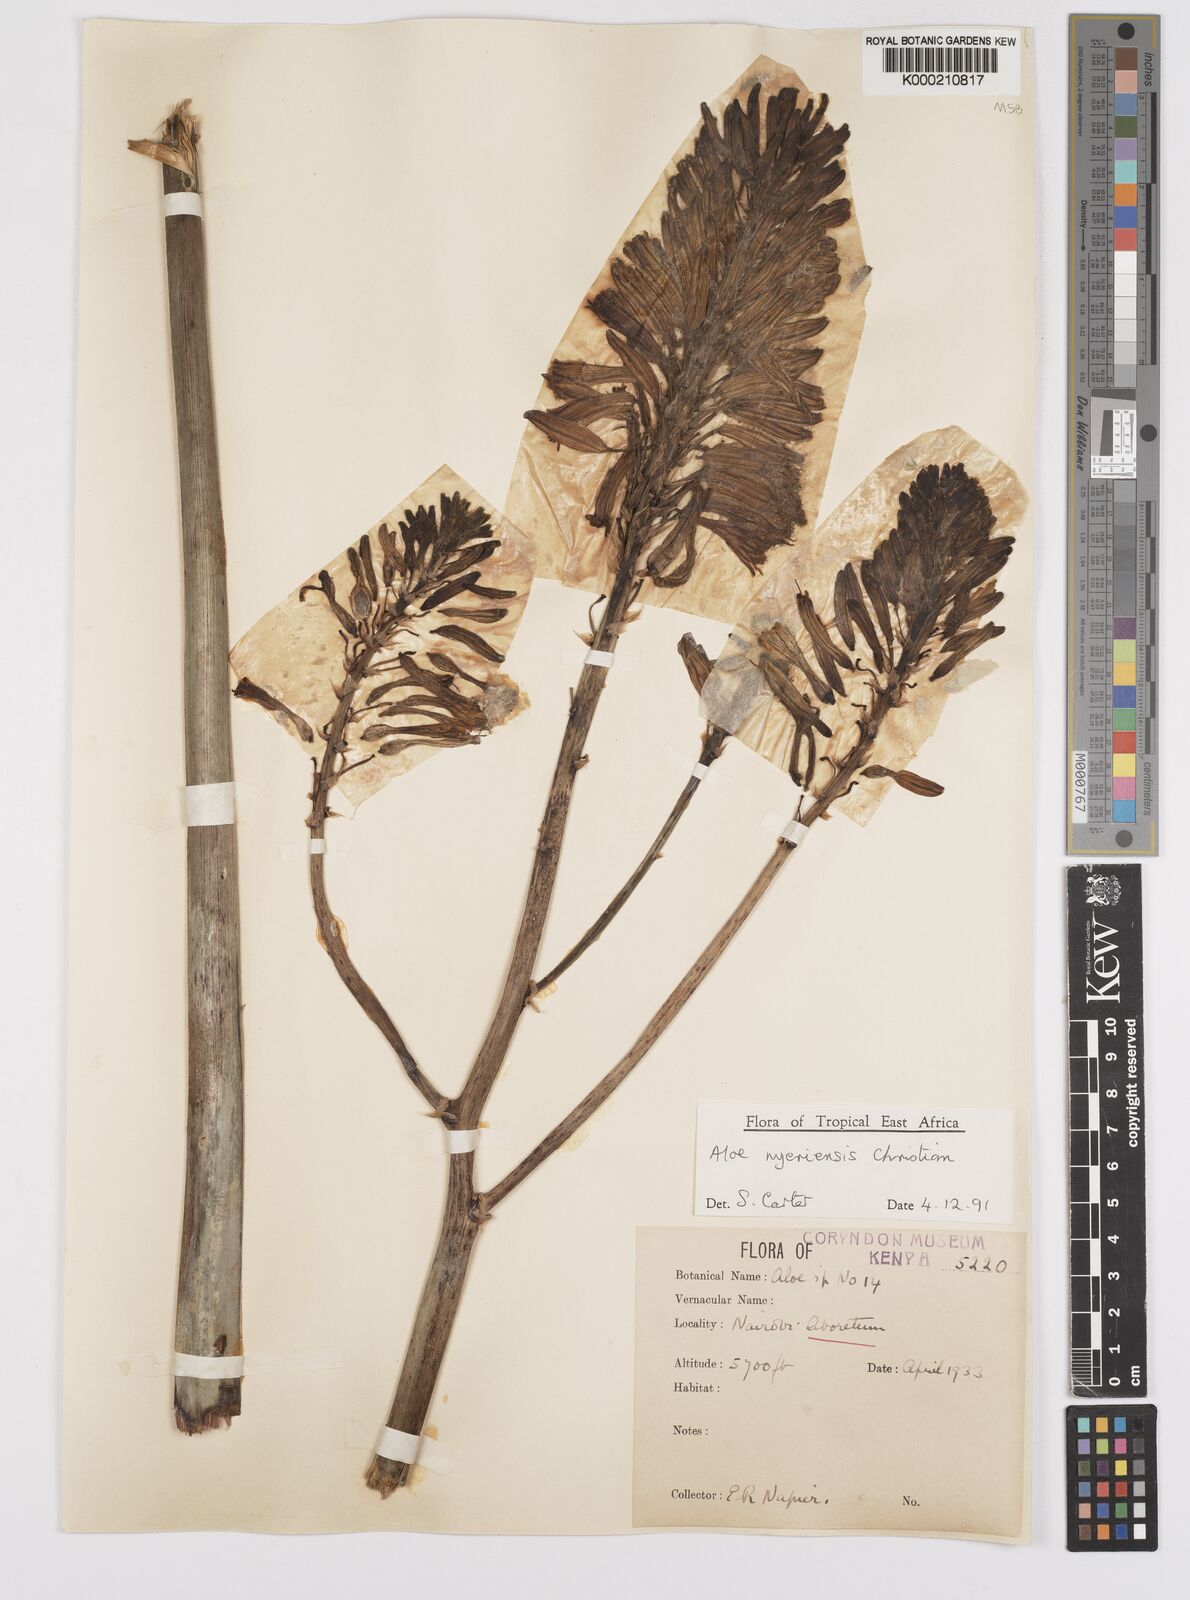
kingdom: Plantae
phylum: Tracheophyta
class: Liliopsida
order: Asparagales
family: Asphodelaceae
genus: Aloe
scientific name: Aloe nyeriensis
